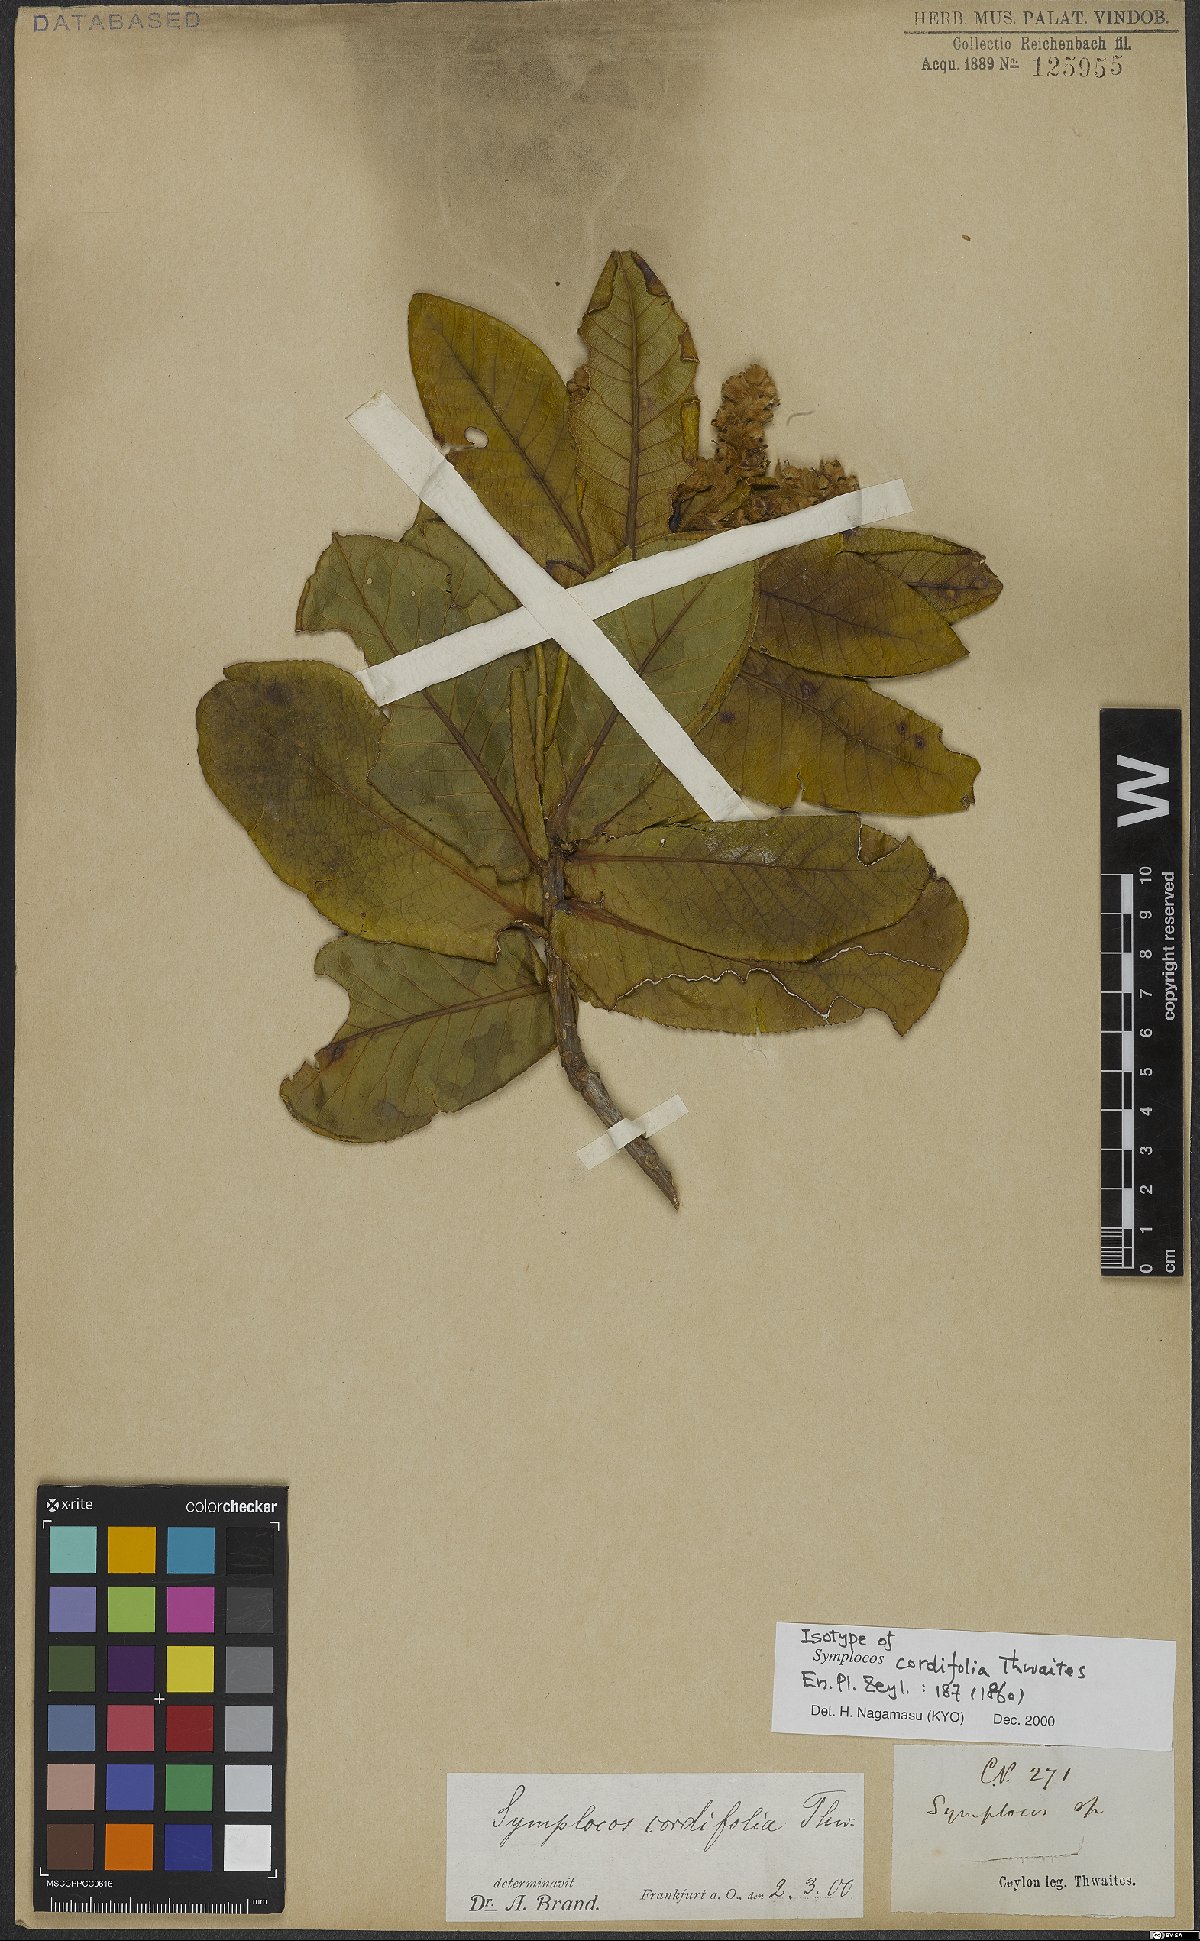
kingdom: Plantae
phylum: Tracheophyta
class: Magnoliopsida
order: Ericales
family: Symplocaceae
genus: Symplocos
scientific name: Symplocos cordifolia
